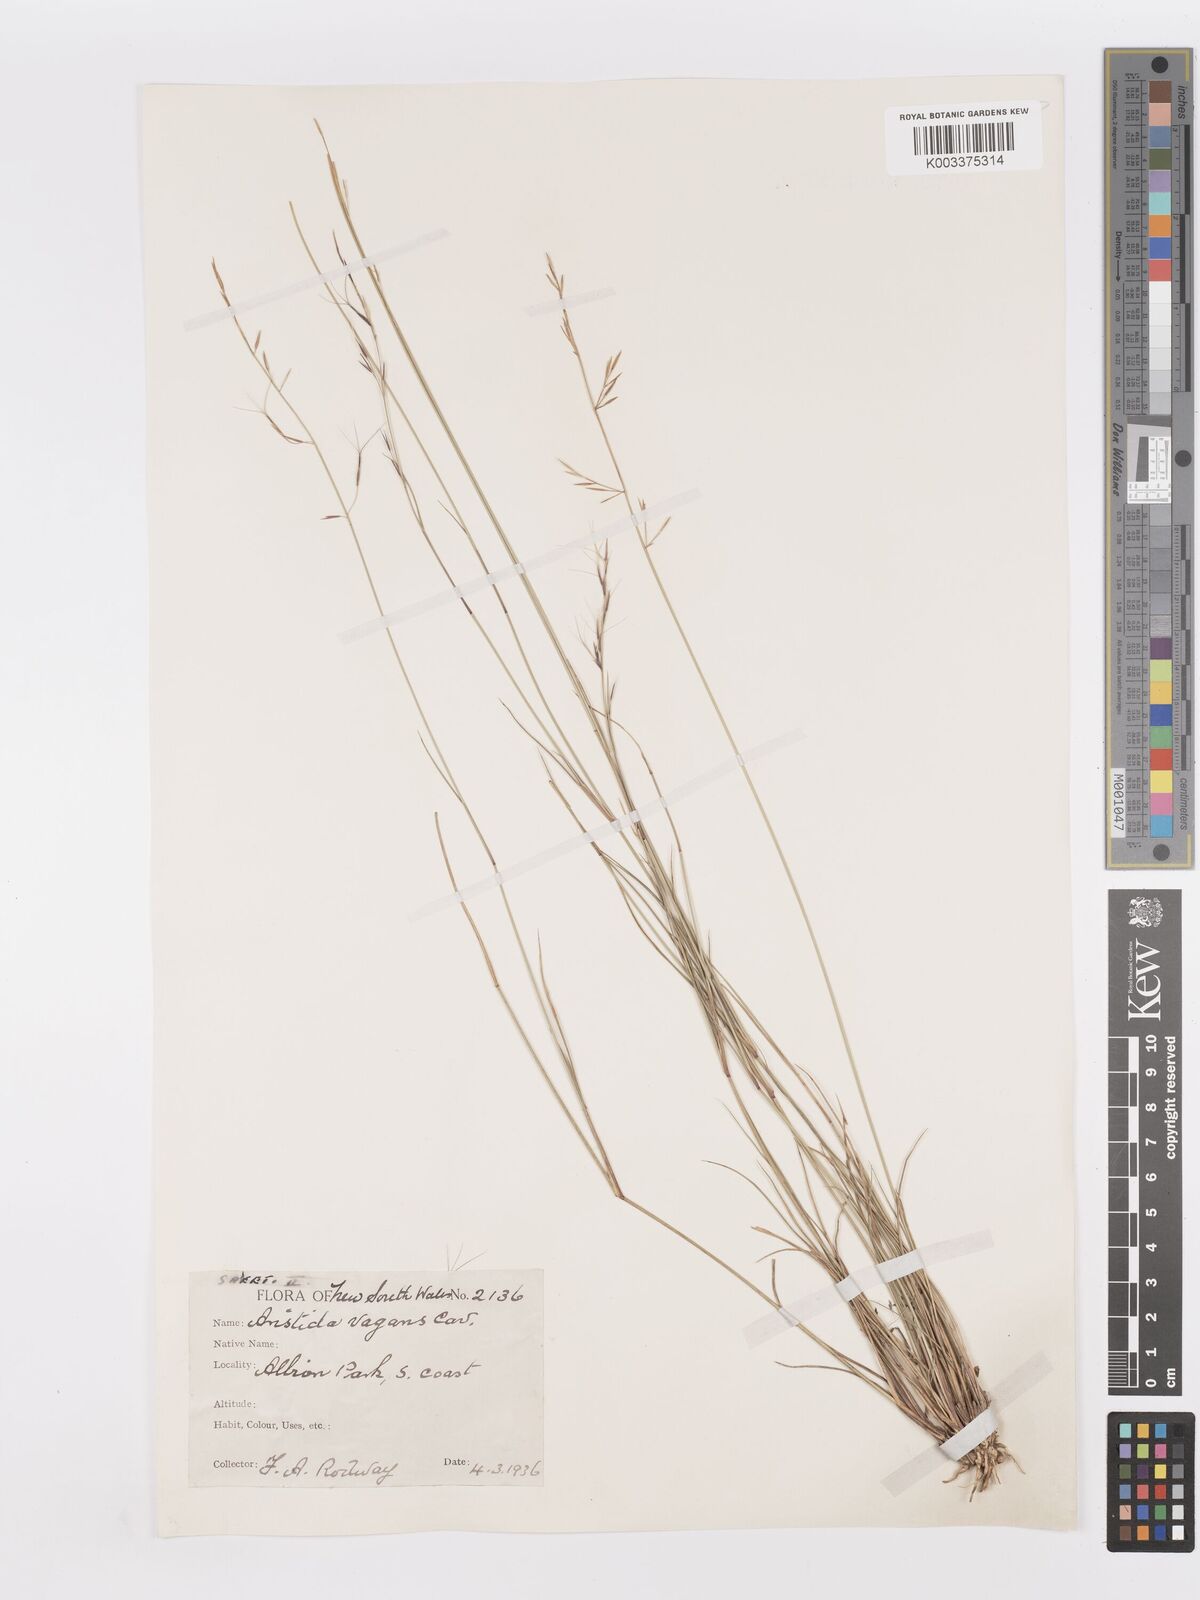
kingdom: Plantae
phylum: Tracheophyta
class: Liliopsida
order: Poales
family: Poaceae
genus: Aristida
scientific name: Aristida vagans
